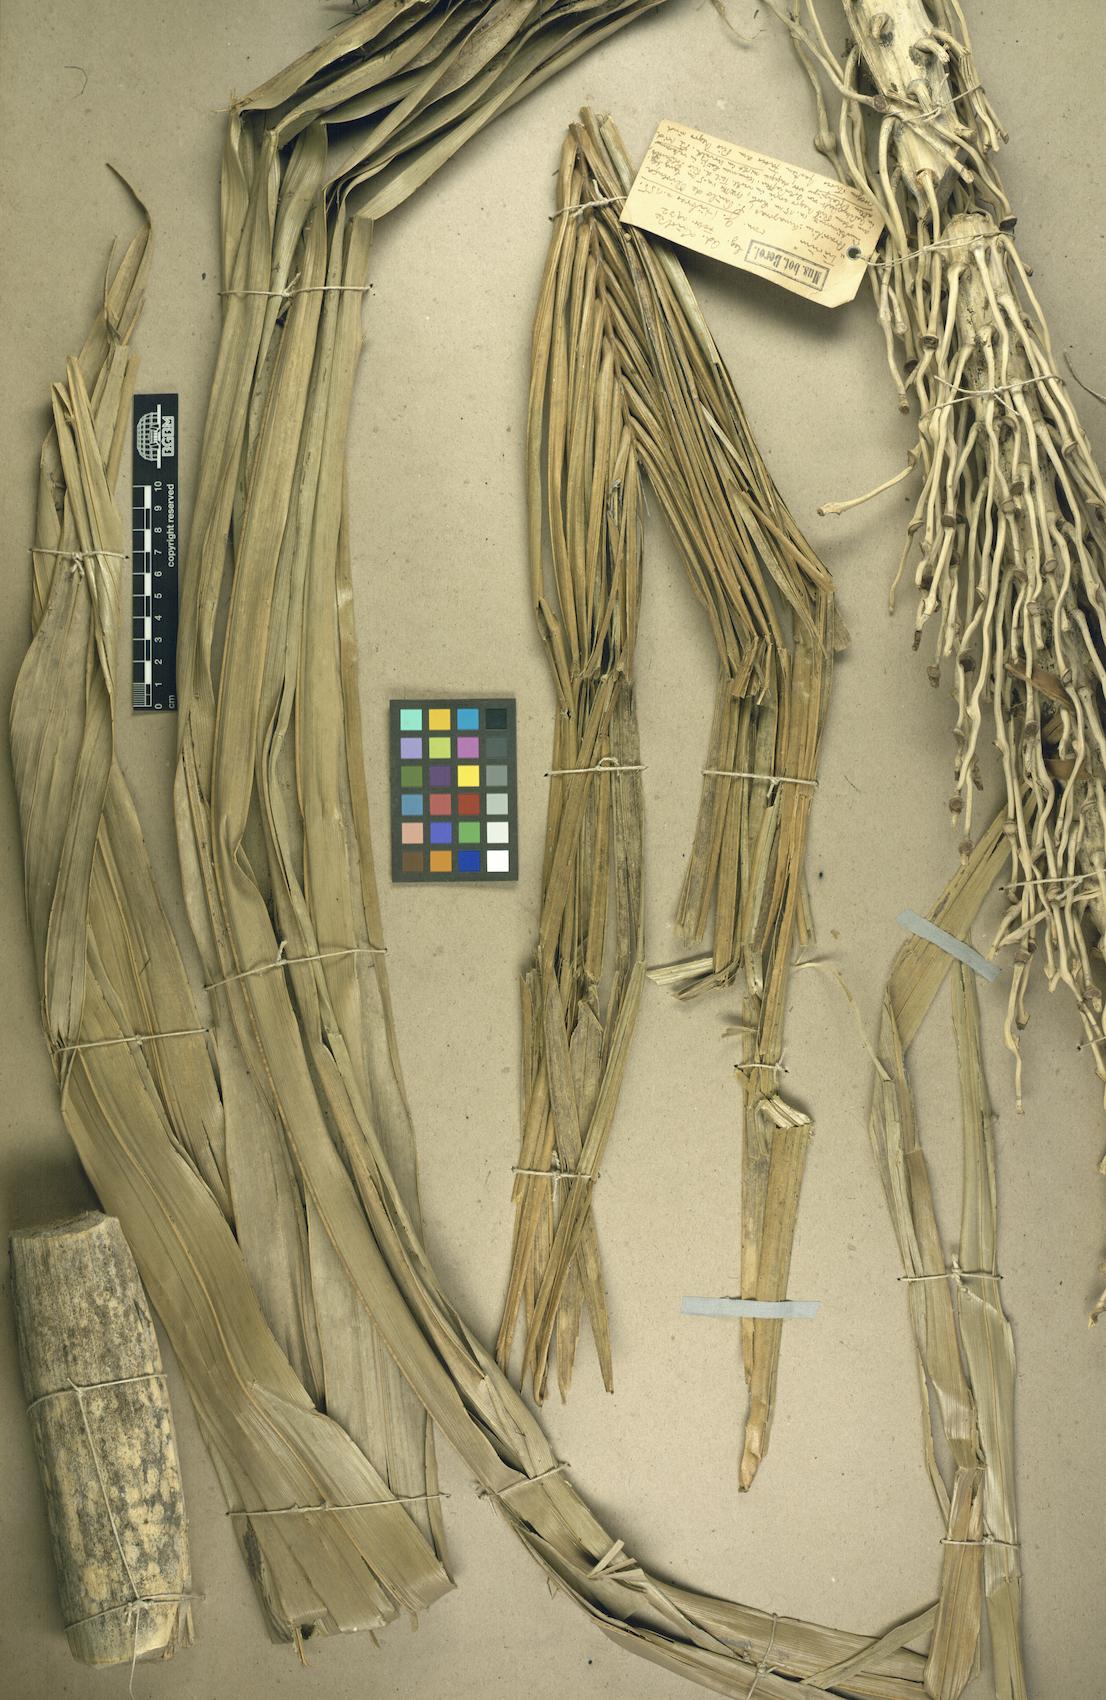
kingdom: Plantae
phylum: Tracheophyta
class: Liliopsida
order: Arecales
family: Arecaceae
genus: Astrocaryum
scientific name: Astrocaryum chambira
